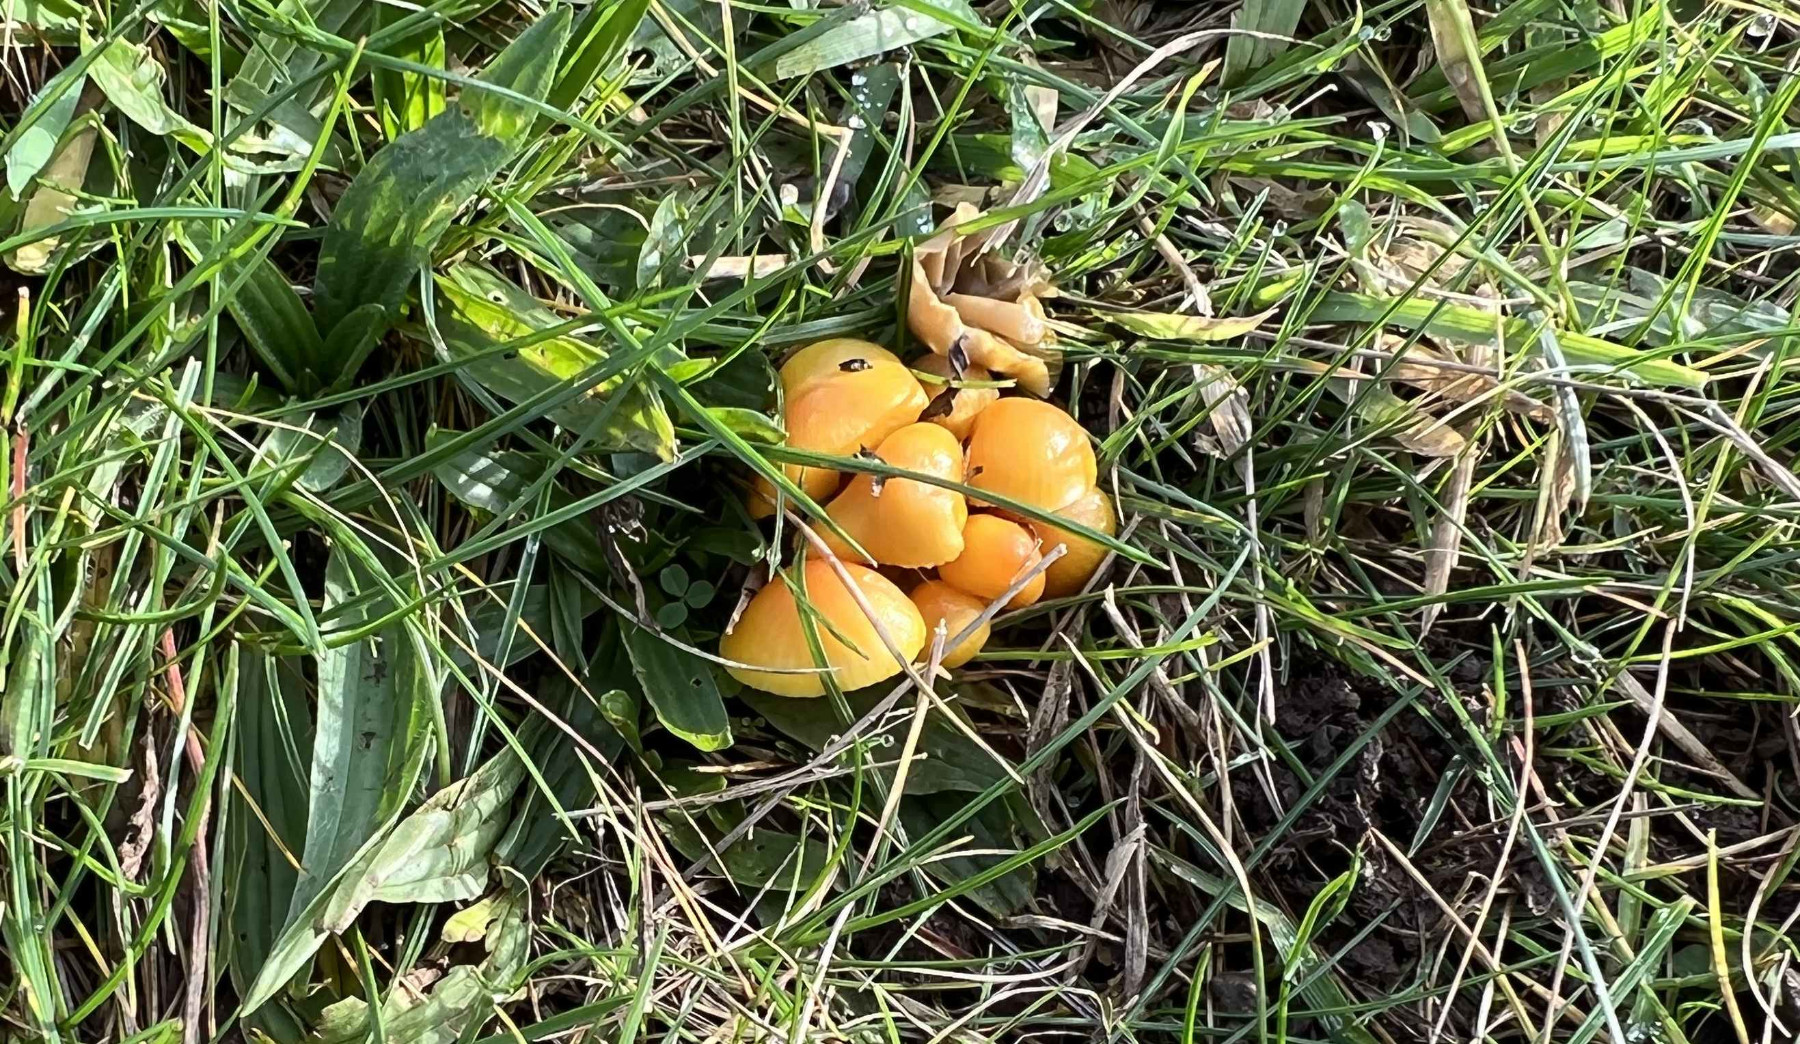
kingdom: Fungi
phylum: Basidiomycota
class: Agaricomycetes
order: Agaricales
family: Hygrophoraceae
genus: Hygrocybe
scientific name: Hygrocybe
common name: vokshat
